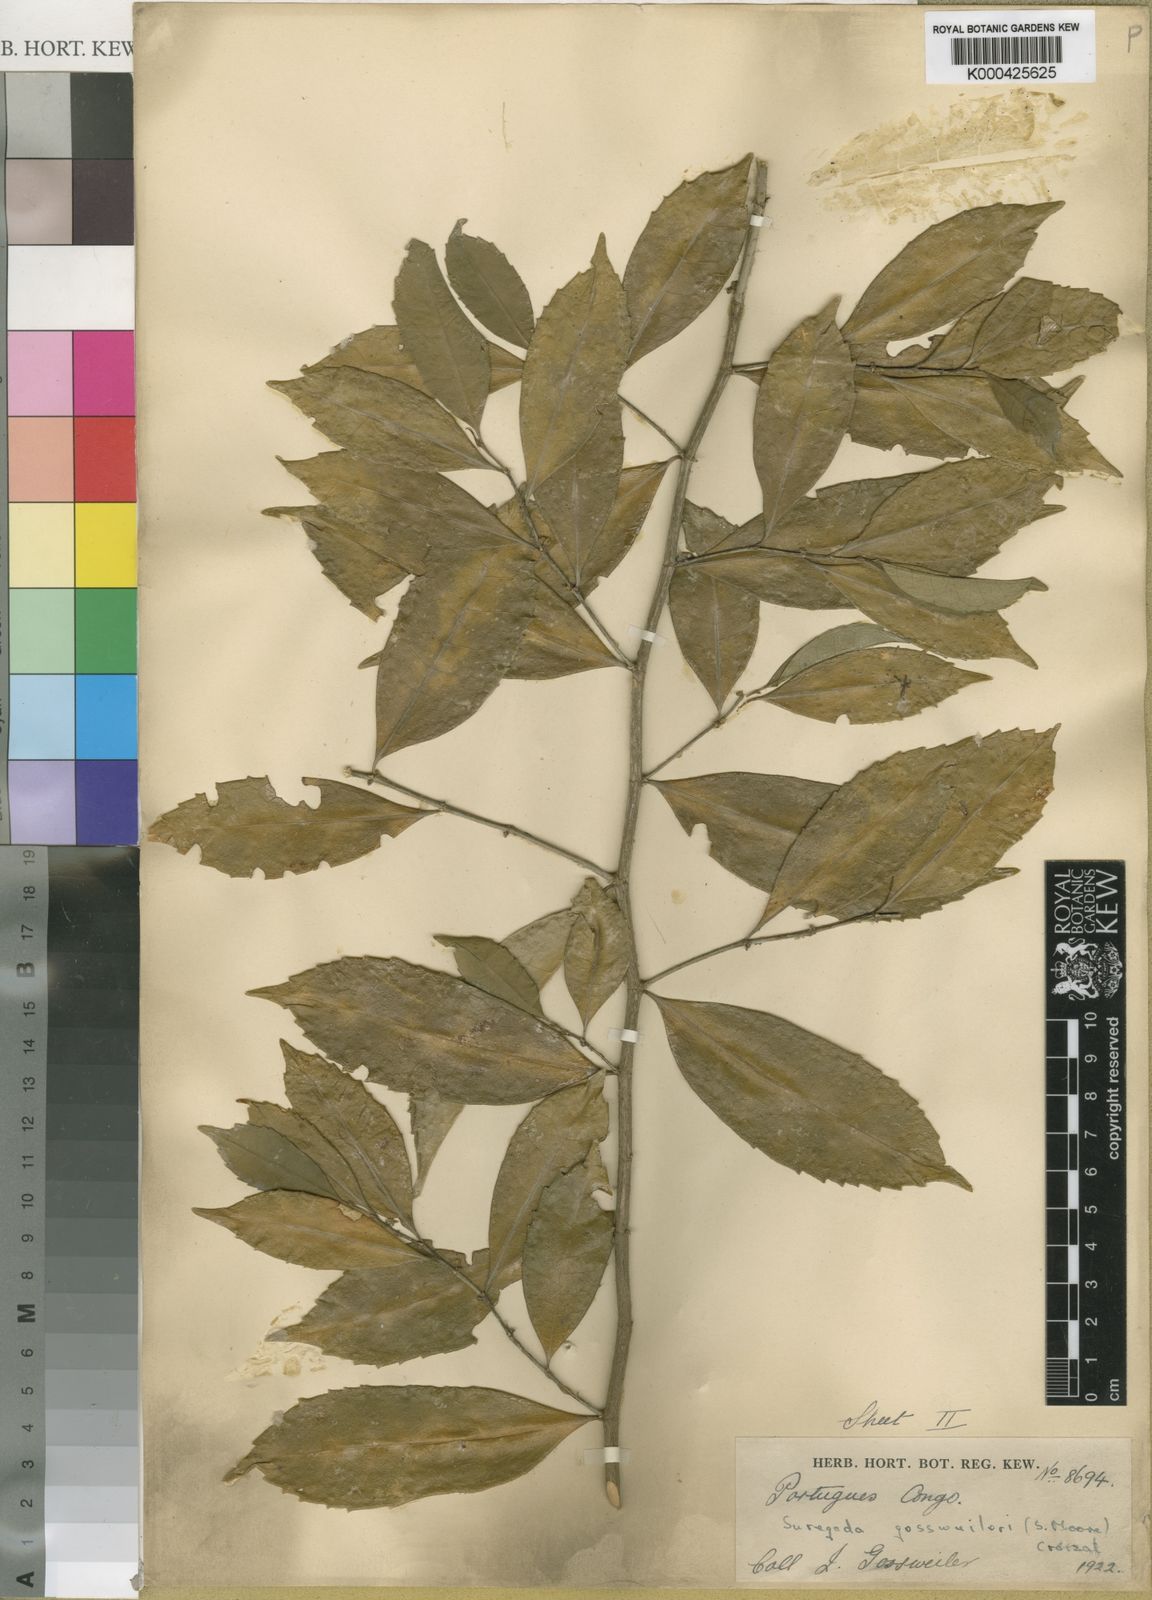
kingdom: Plantae
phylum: Tracheophyta
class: Magnoliopsida
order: Malpighiales
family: Euphorbiaceae
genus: Suregada
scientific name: Suregada gossweileri
